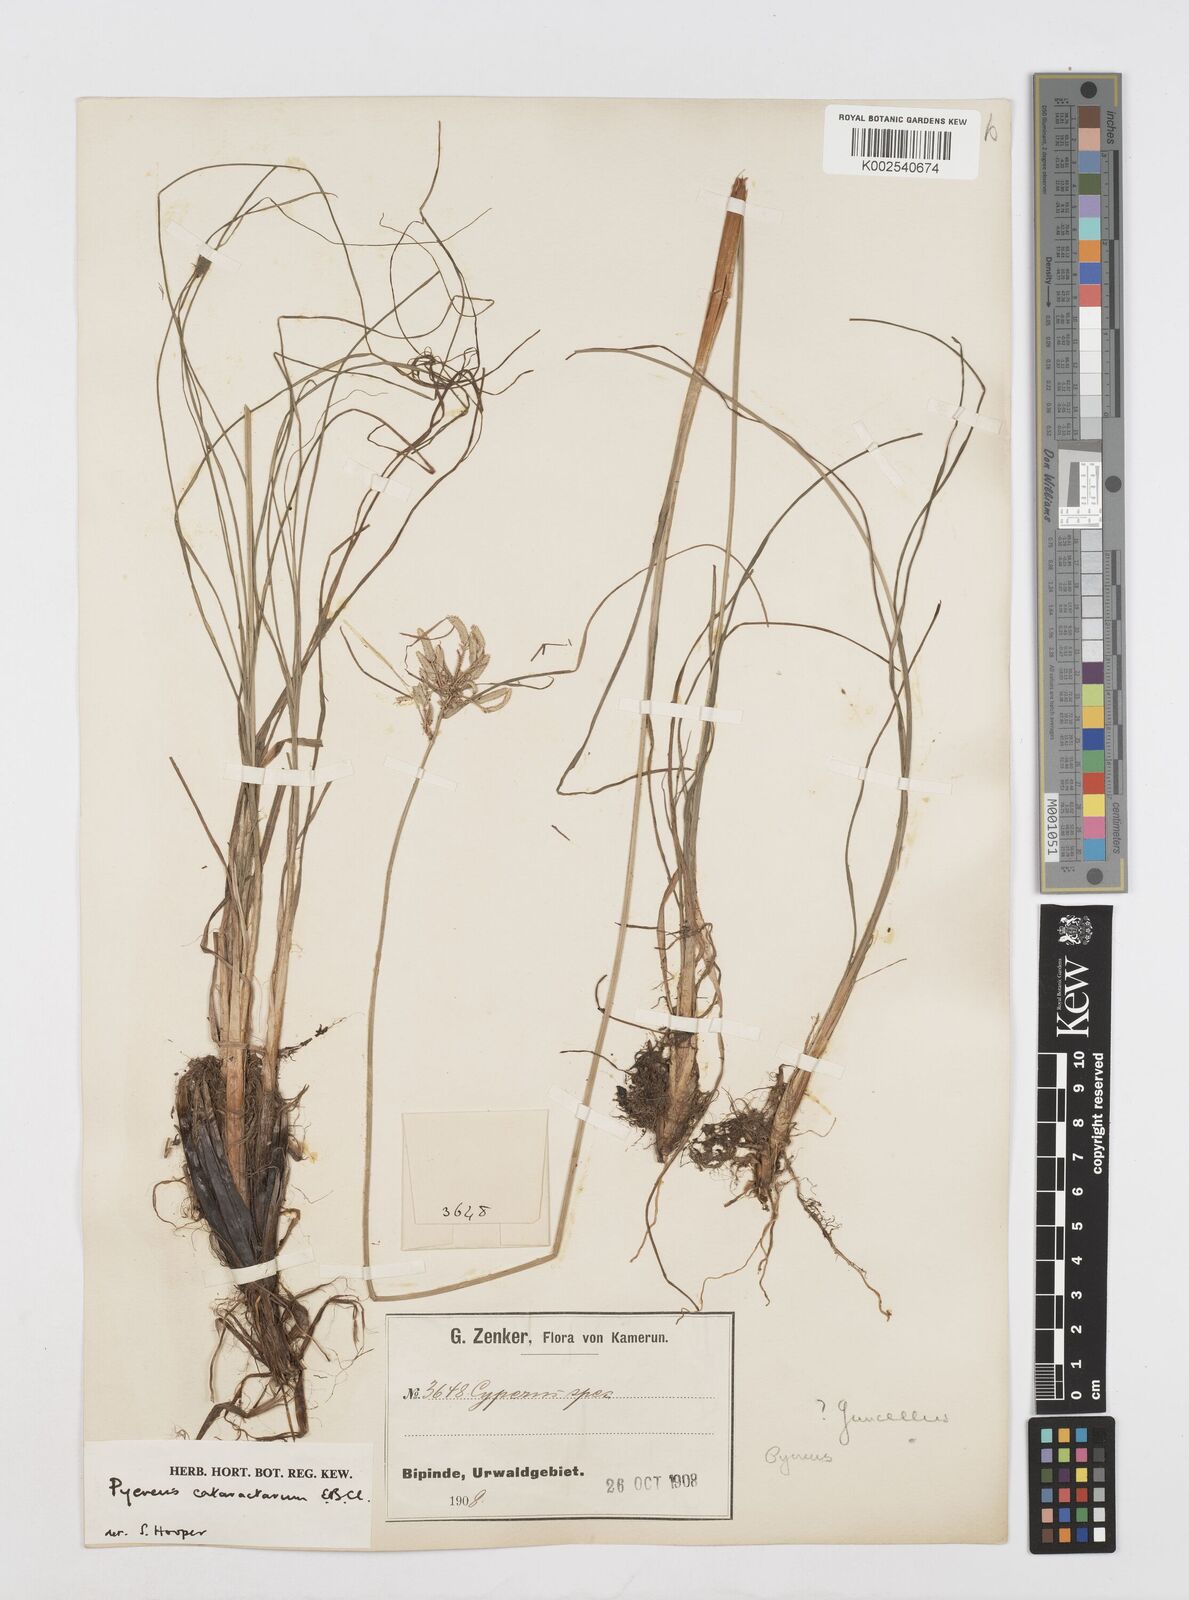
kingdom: Plantae
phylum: Tracheophyta
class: Liliopsida
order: Poales
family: Cyperaceae
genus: Cyperus
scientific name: Cyperus cataractarum
